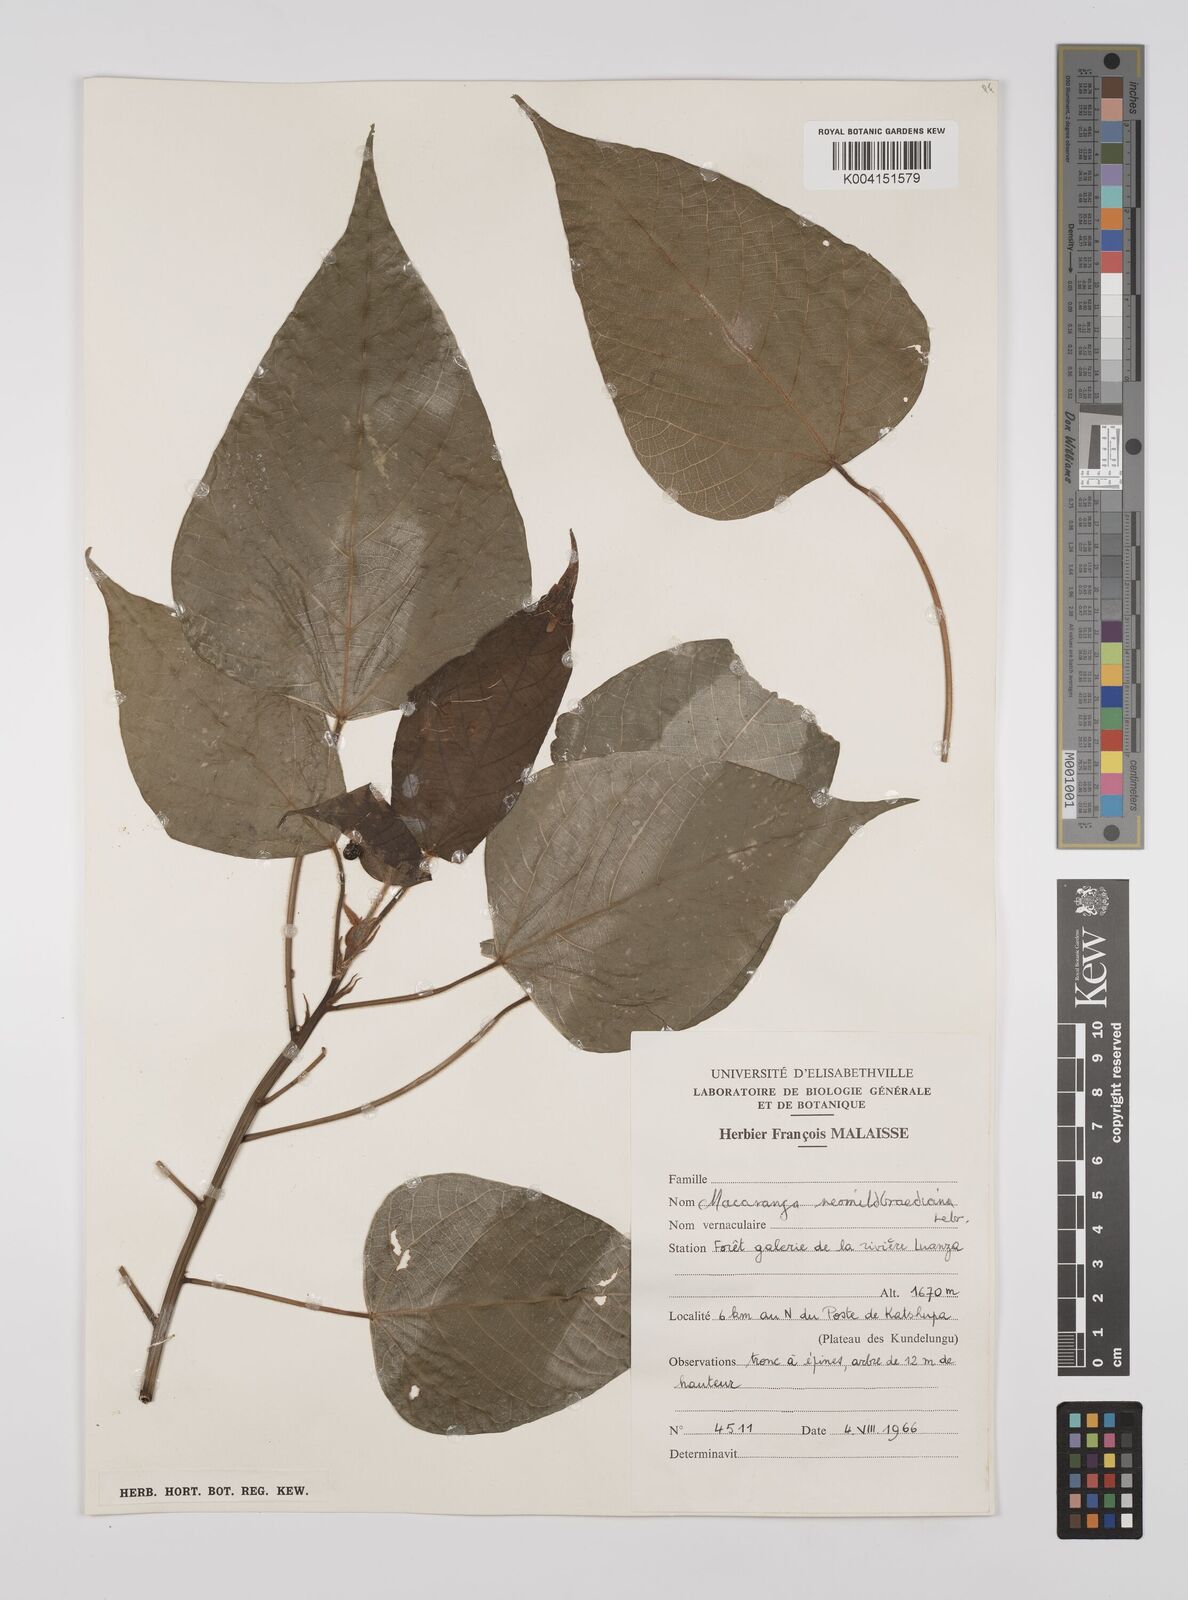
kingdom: Plantae
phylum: Tracheophyta
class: Magnoliopsida
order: Malpighiales
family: Euphorbiaceae
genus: Macaranga
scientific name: Macaranga kilimandscharica
